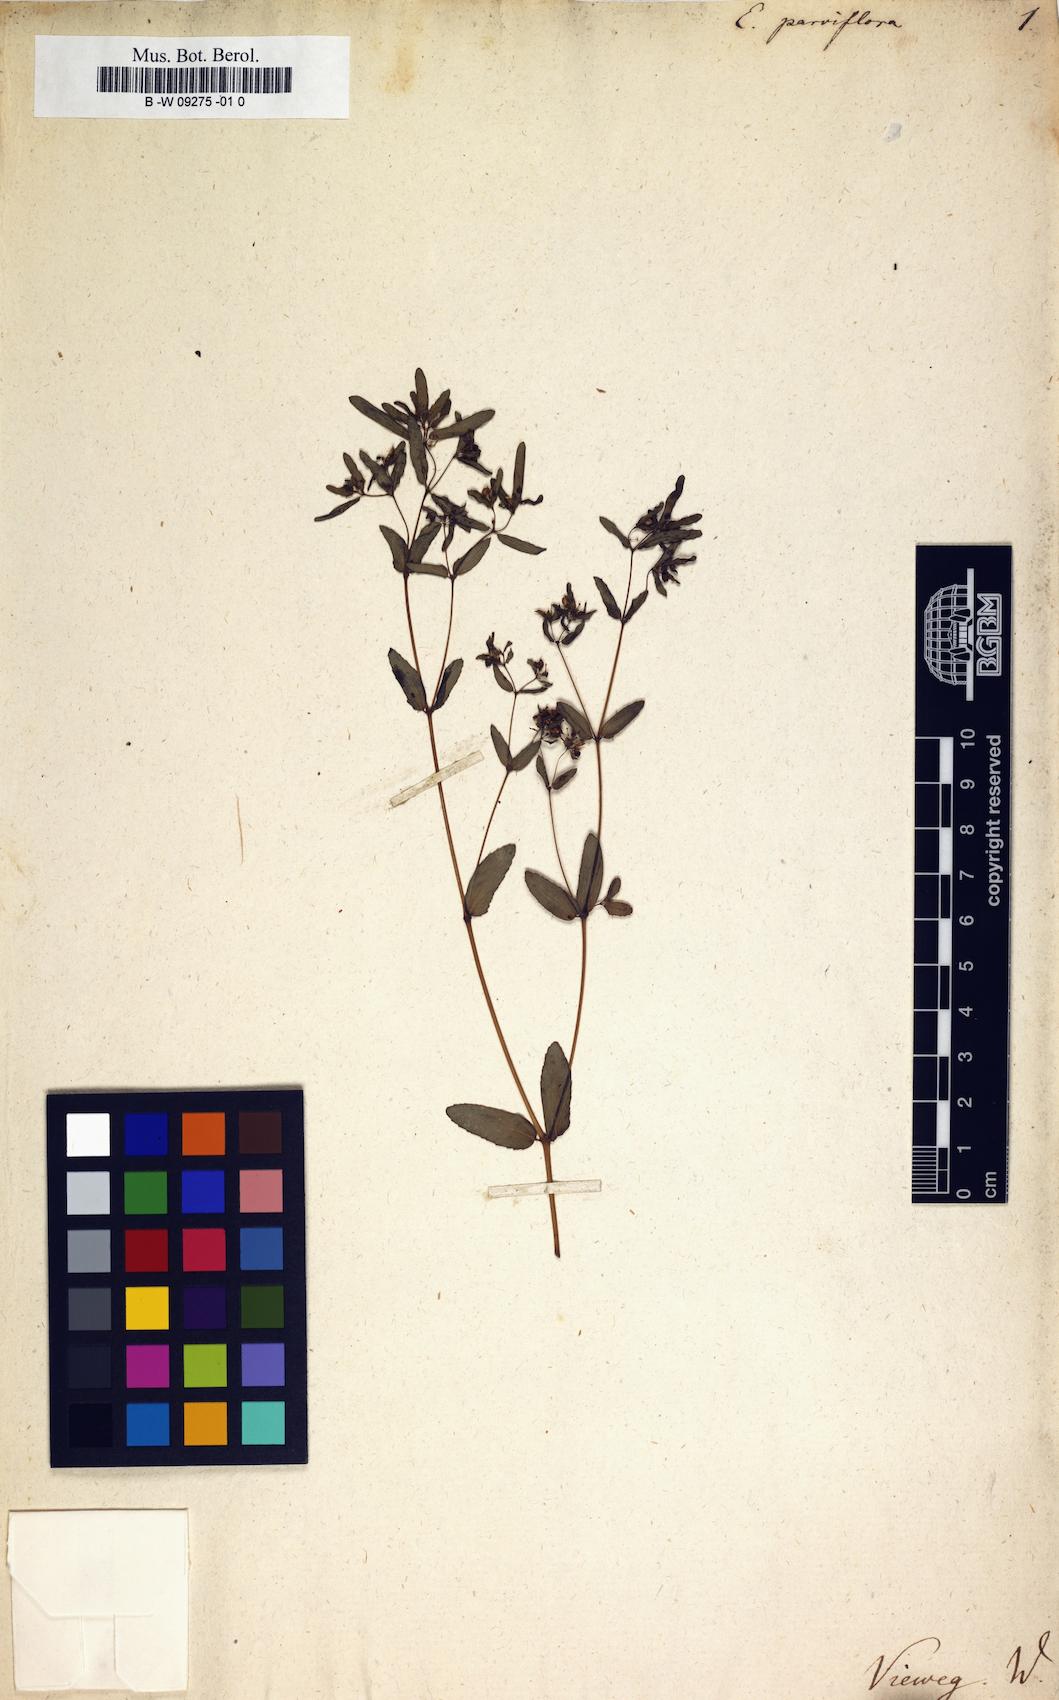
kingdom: Plantae
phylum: Tracheophyta
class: Magnoliopsida
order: Malpighiales
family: Euphorbiaceae
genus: Euphorbia
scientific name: Euphorbia parviflora
